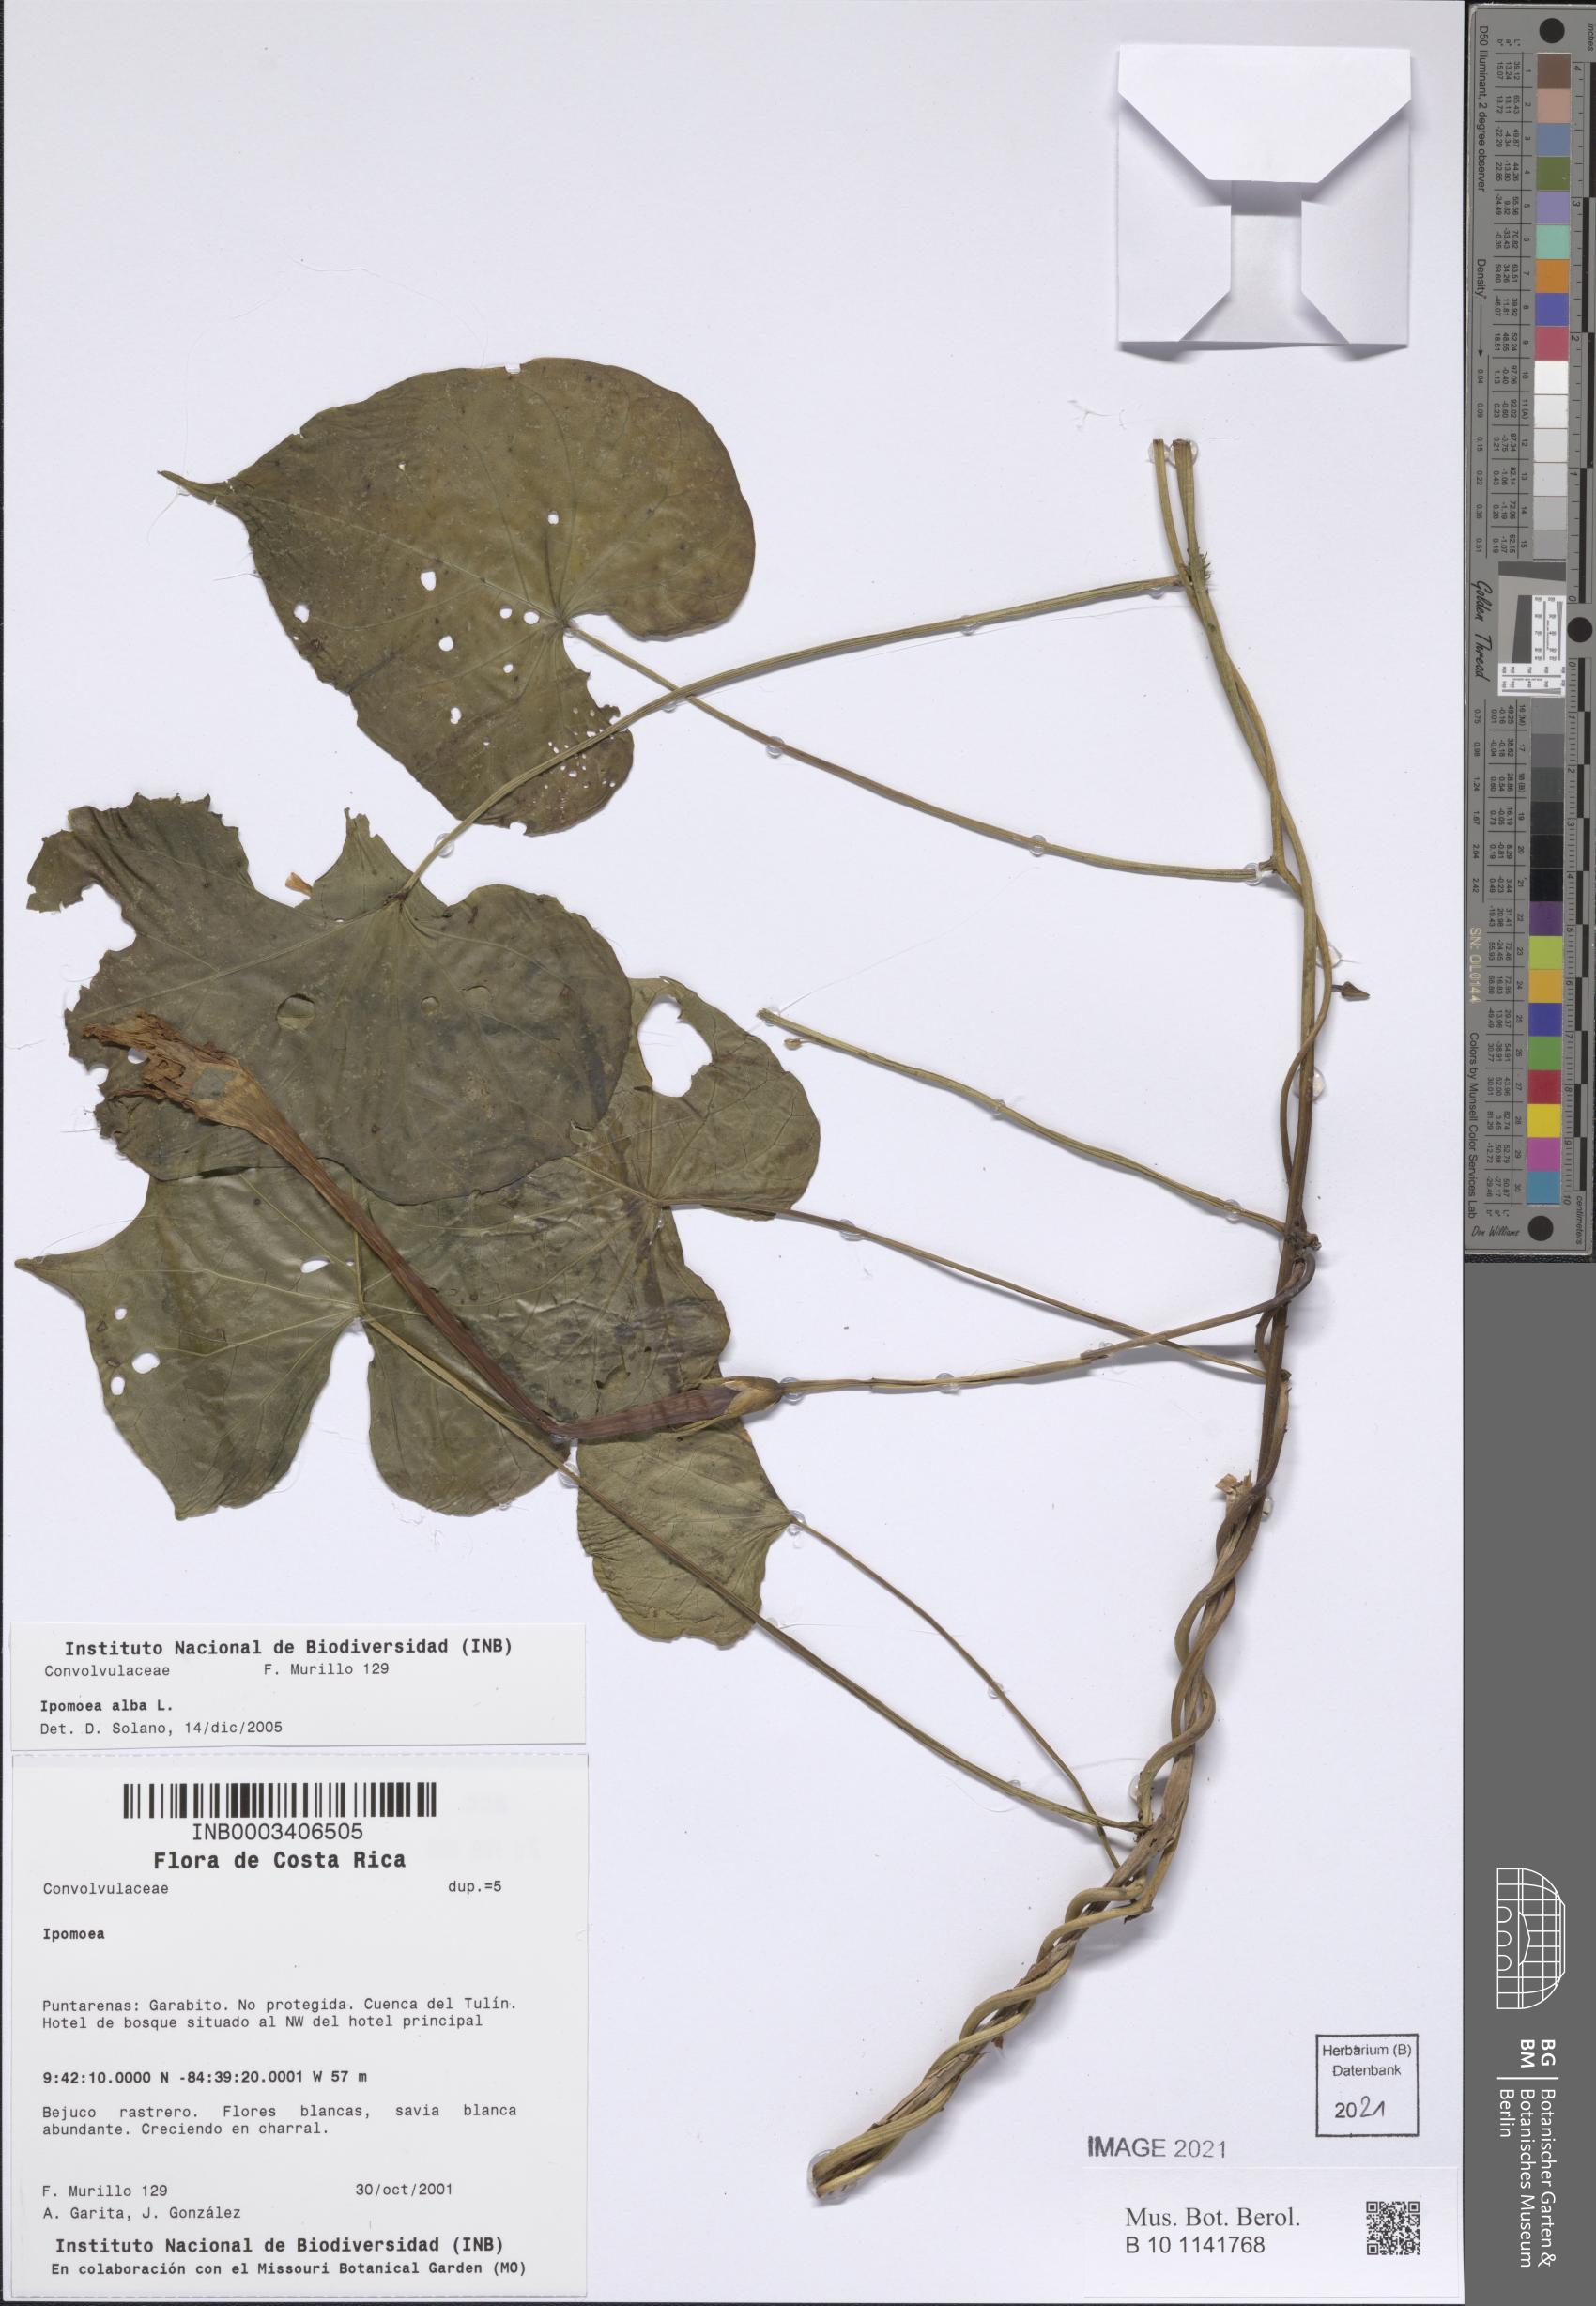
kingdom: Plantae
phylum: Tracheophyta
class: Magnoliopsida
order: Solanales
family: Convolvulaceae
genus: Ipomoea
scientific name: Ipomoea alba
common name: Moonflower
